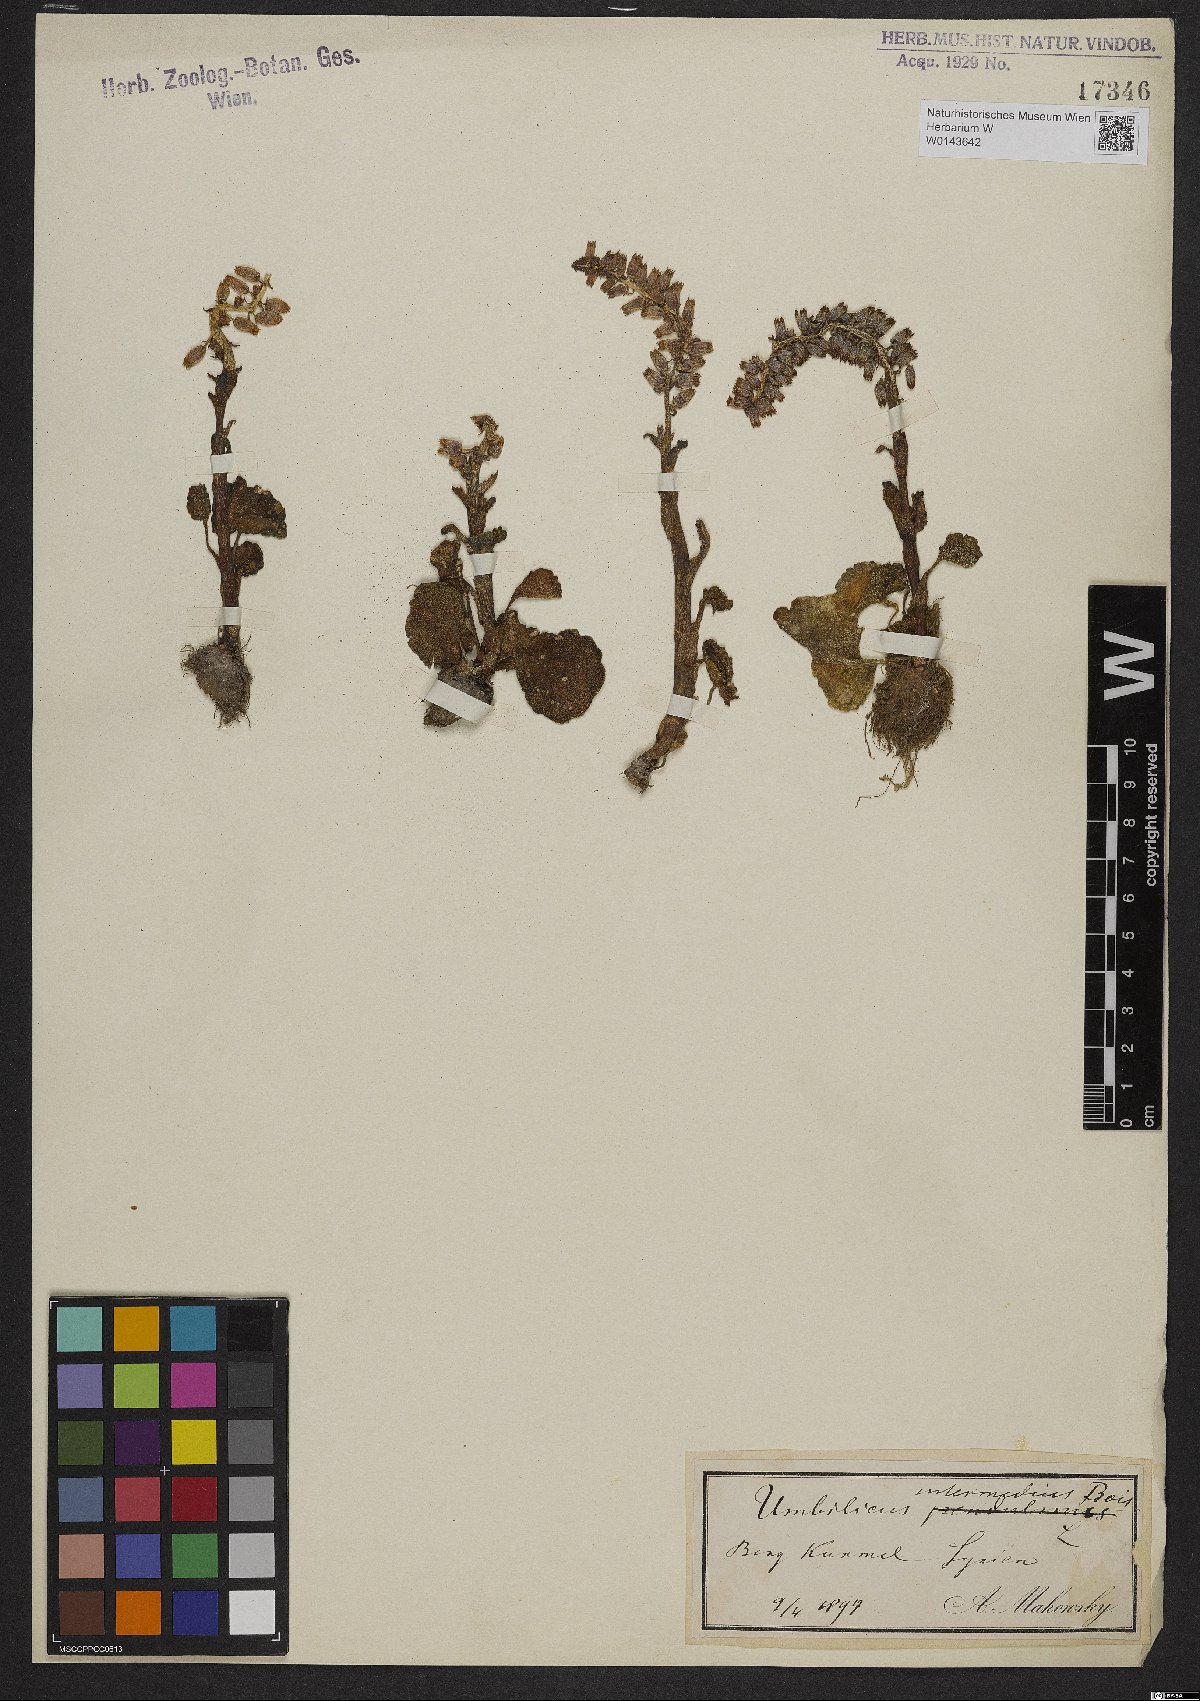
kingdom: Plantae
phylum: Tracheophyta
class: Magnoliopsida
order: Saxifragales
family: Crassulaceae
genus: Umbilicus
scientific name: Umbilicus horizontalis
